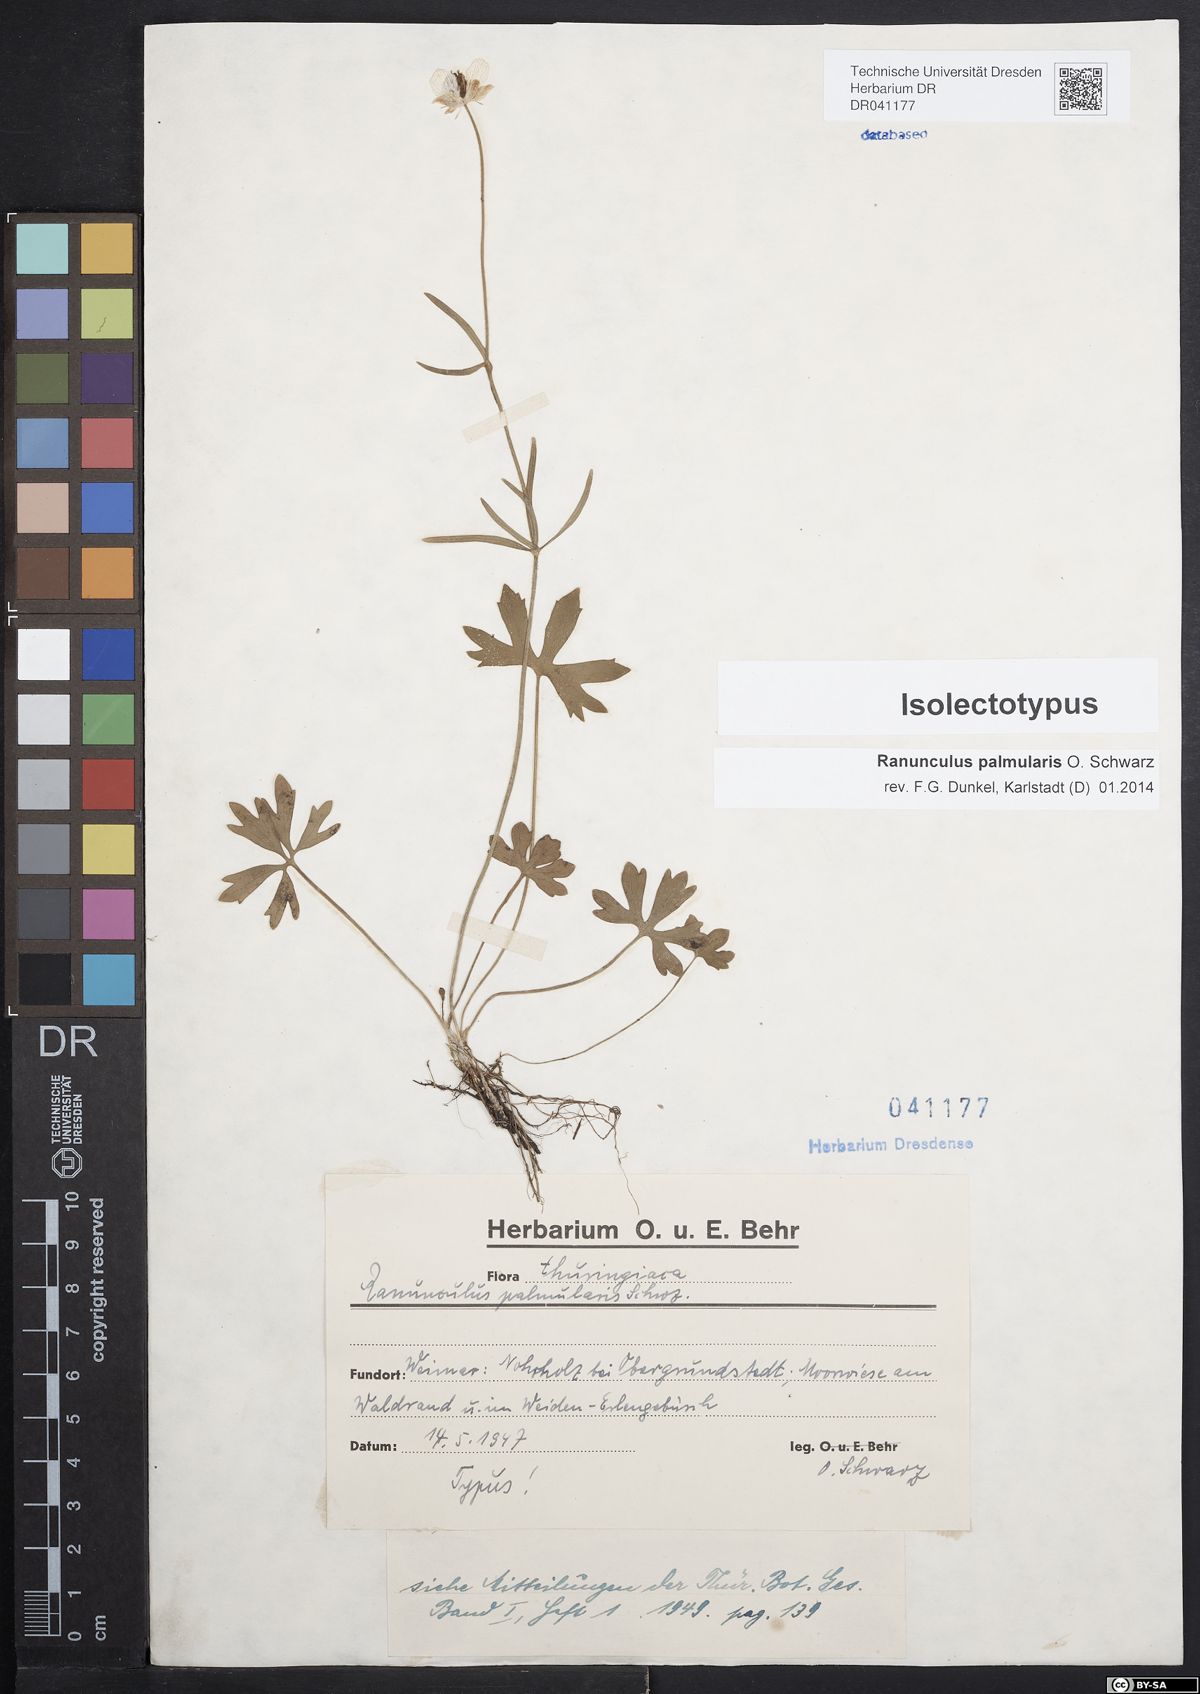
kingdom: Plantae
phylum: Tracheophyta
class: Magnoliopsida
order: Ranunculales
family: Ranunculaceae
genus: Ranunculus
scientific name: Ranunculus palmularis
